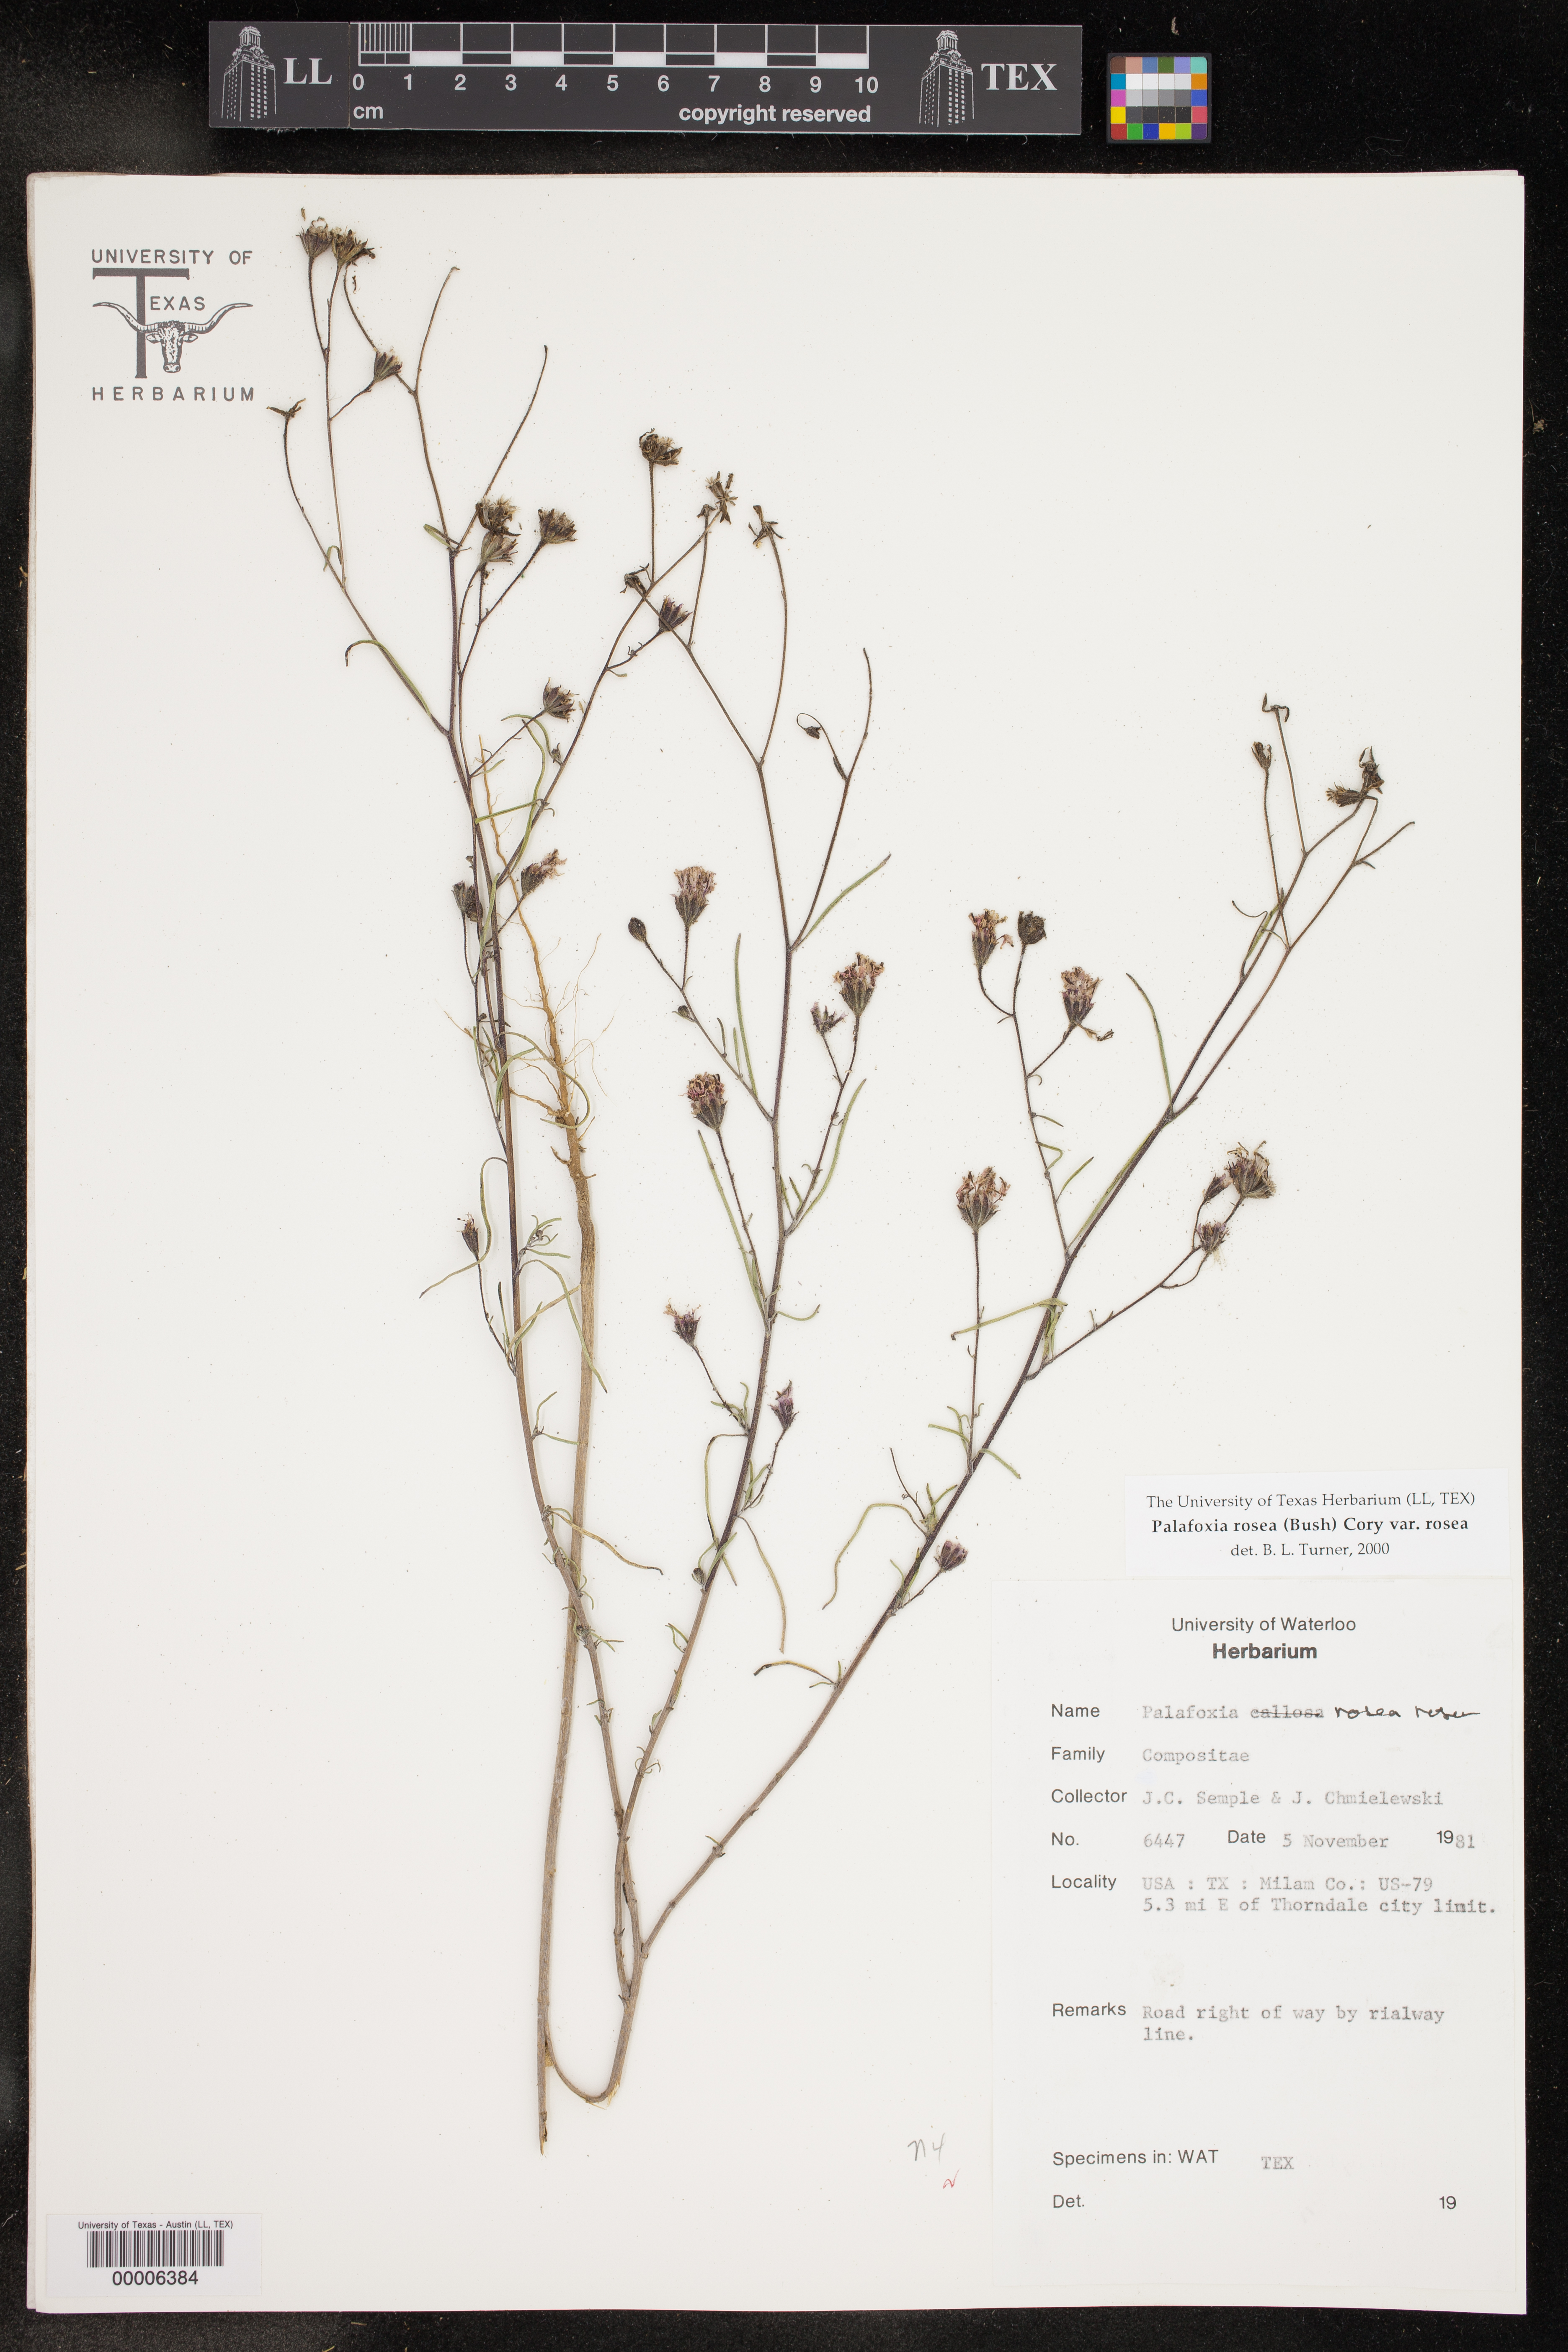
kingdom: Plantae
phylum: Tracheophyta
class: Magnoliopsida
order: Asterales
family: Asteraceae
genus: Palafoxia
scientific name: Palafoxia rosea
